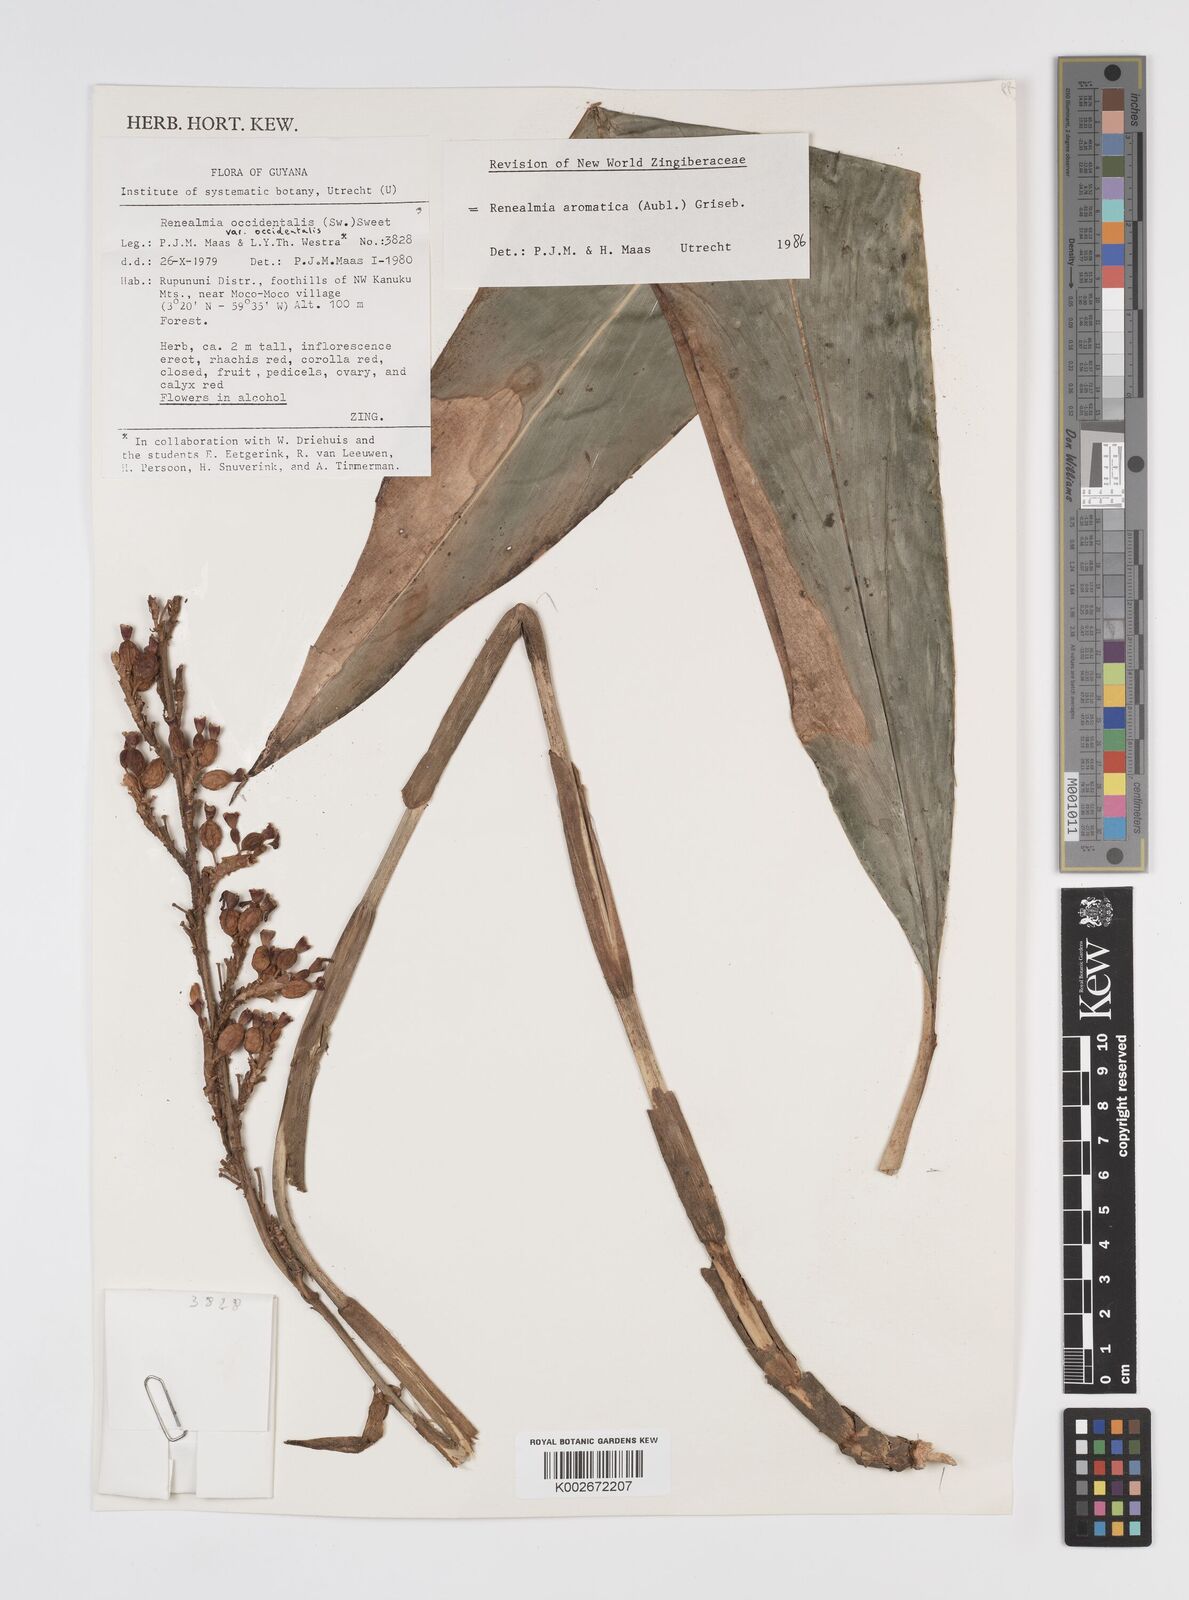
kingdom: Plantae
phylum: Tracheophyta
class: Liliopsida
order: Zingiberales
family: Zingiberaceae
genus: Renealmia
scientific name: Renealmia aromatica
